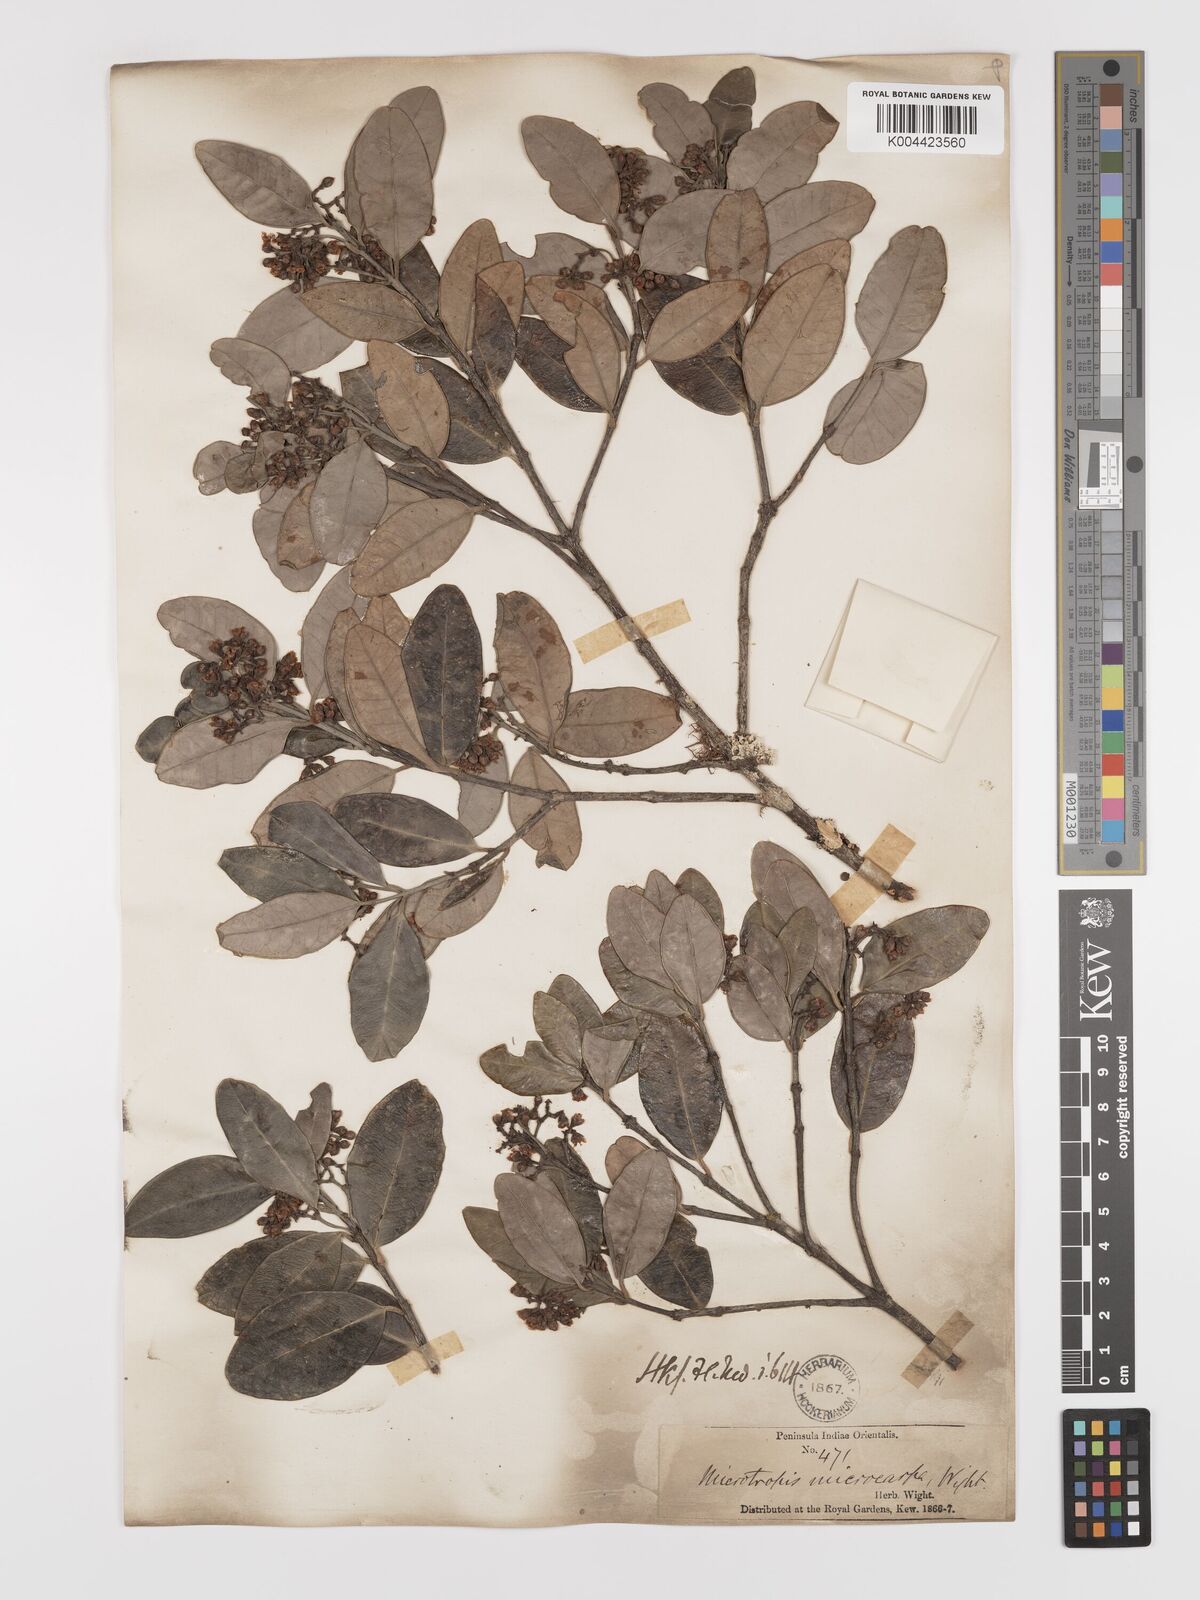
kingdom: Plantae
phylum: Tracheophyta
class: Magnoliopsida
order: Celastrales
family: Celastraceae
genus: Microtropis
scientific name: Microtropis microcarpa
